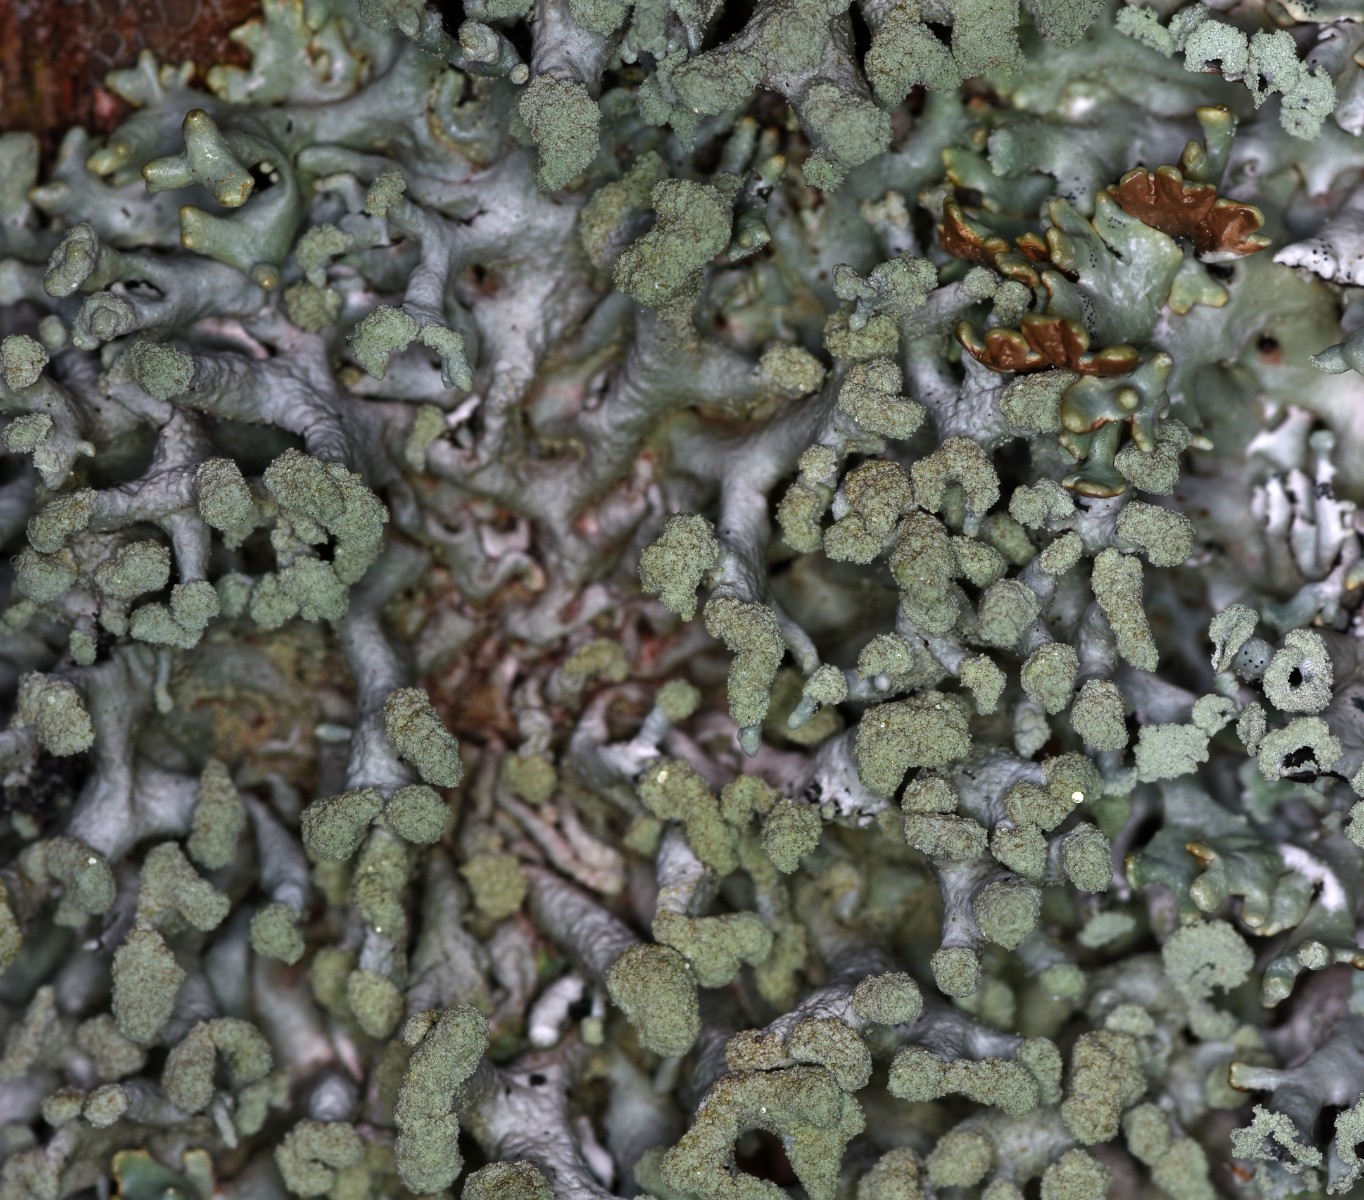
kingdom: Fungi
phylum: Ascomycota
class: Lecanoromycetes
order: Lecanorales
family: Parmeliaceae
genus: Hypogymnia
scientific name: Hypogymnia tubulosa
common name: finger-kvistlav
